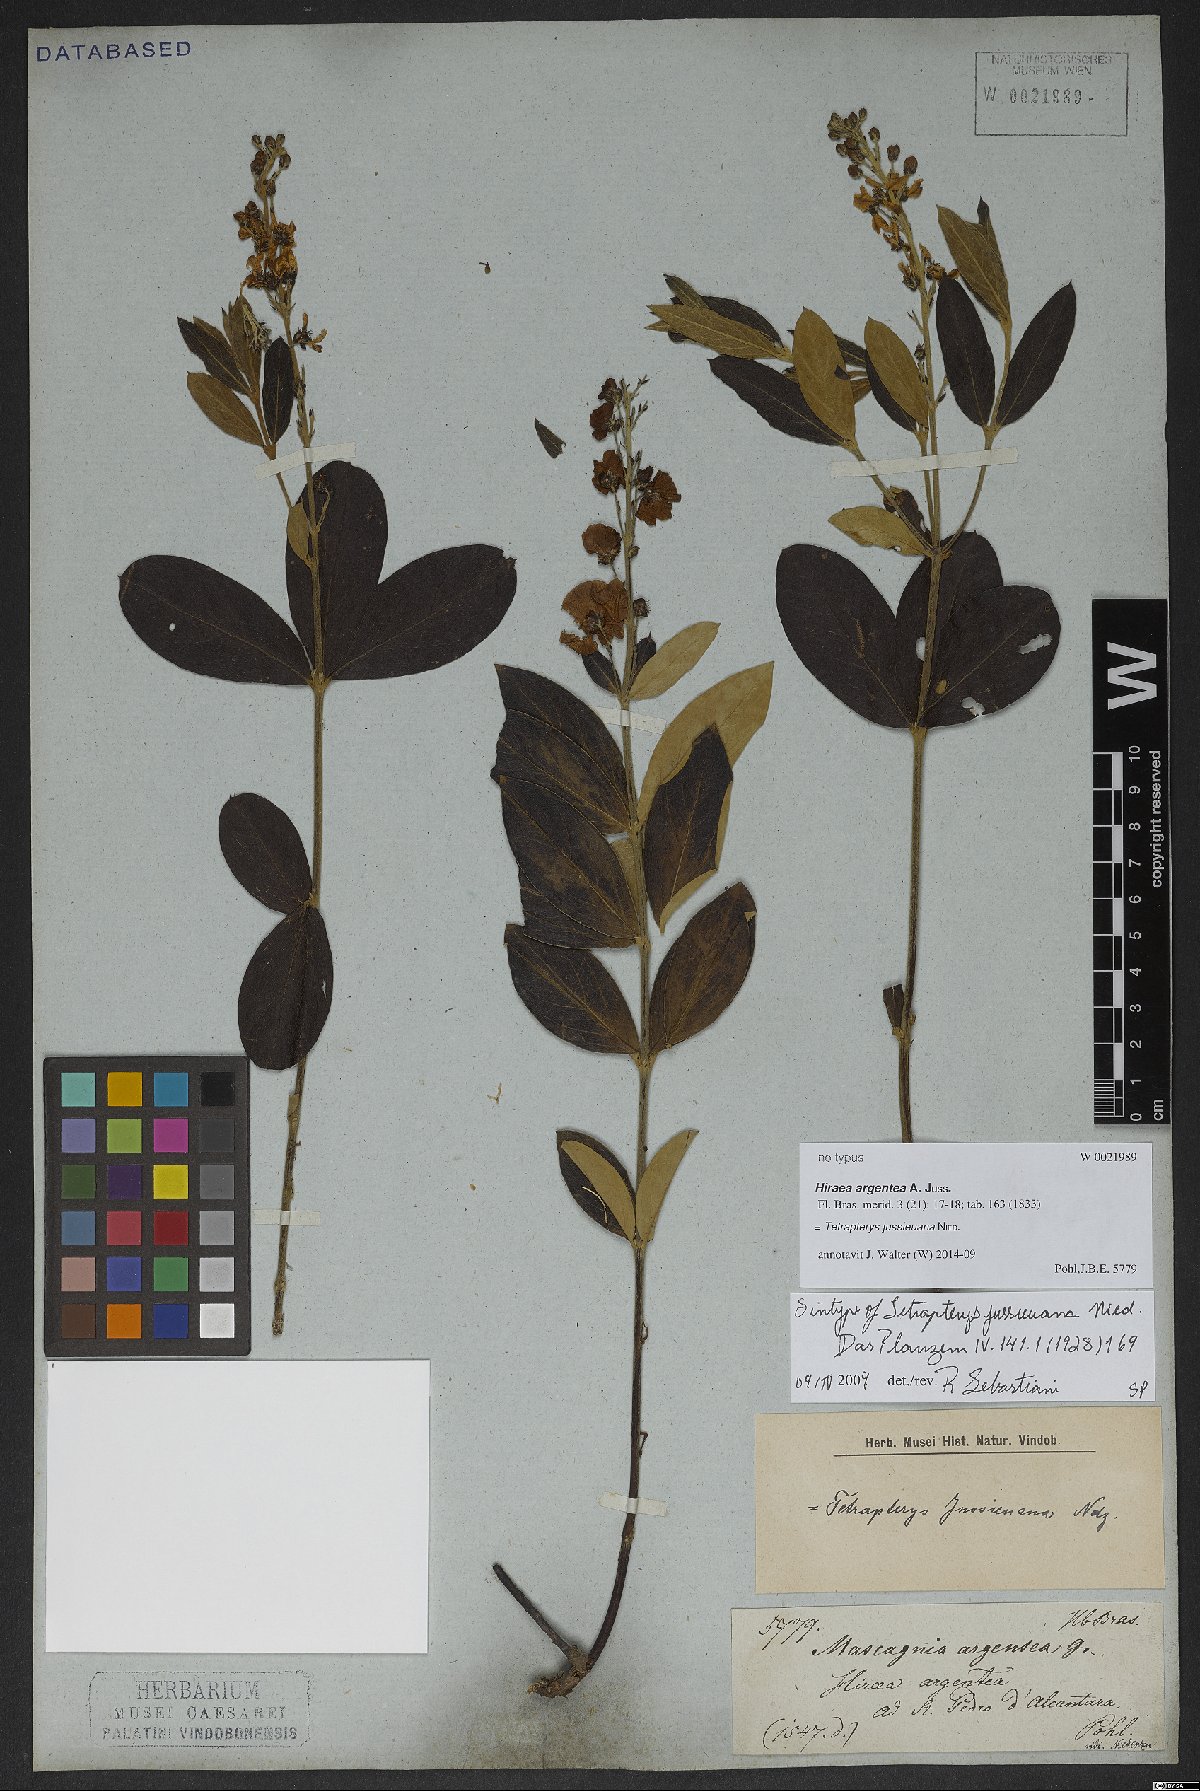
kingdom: Plantae
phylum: Tracheophyta
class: Magnoliopsida
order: Malpighiales
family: Malpighiaceae
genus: Glicophyllum
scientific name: Glicophyllum jussieuanum
